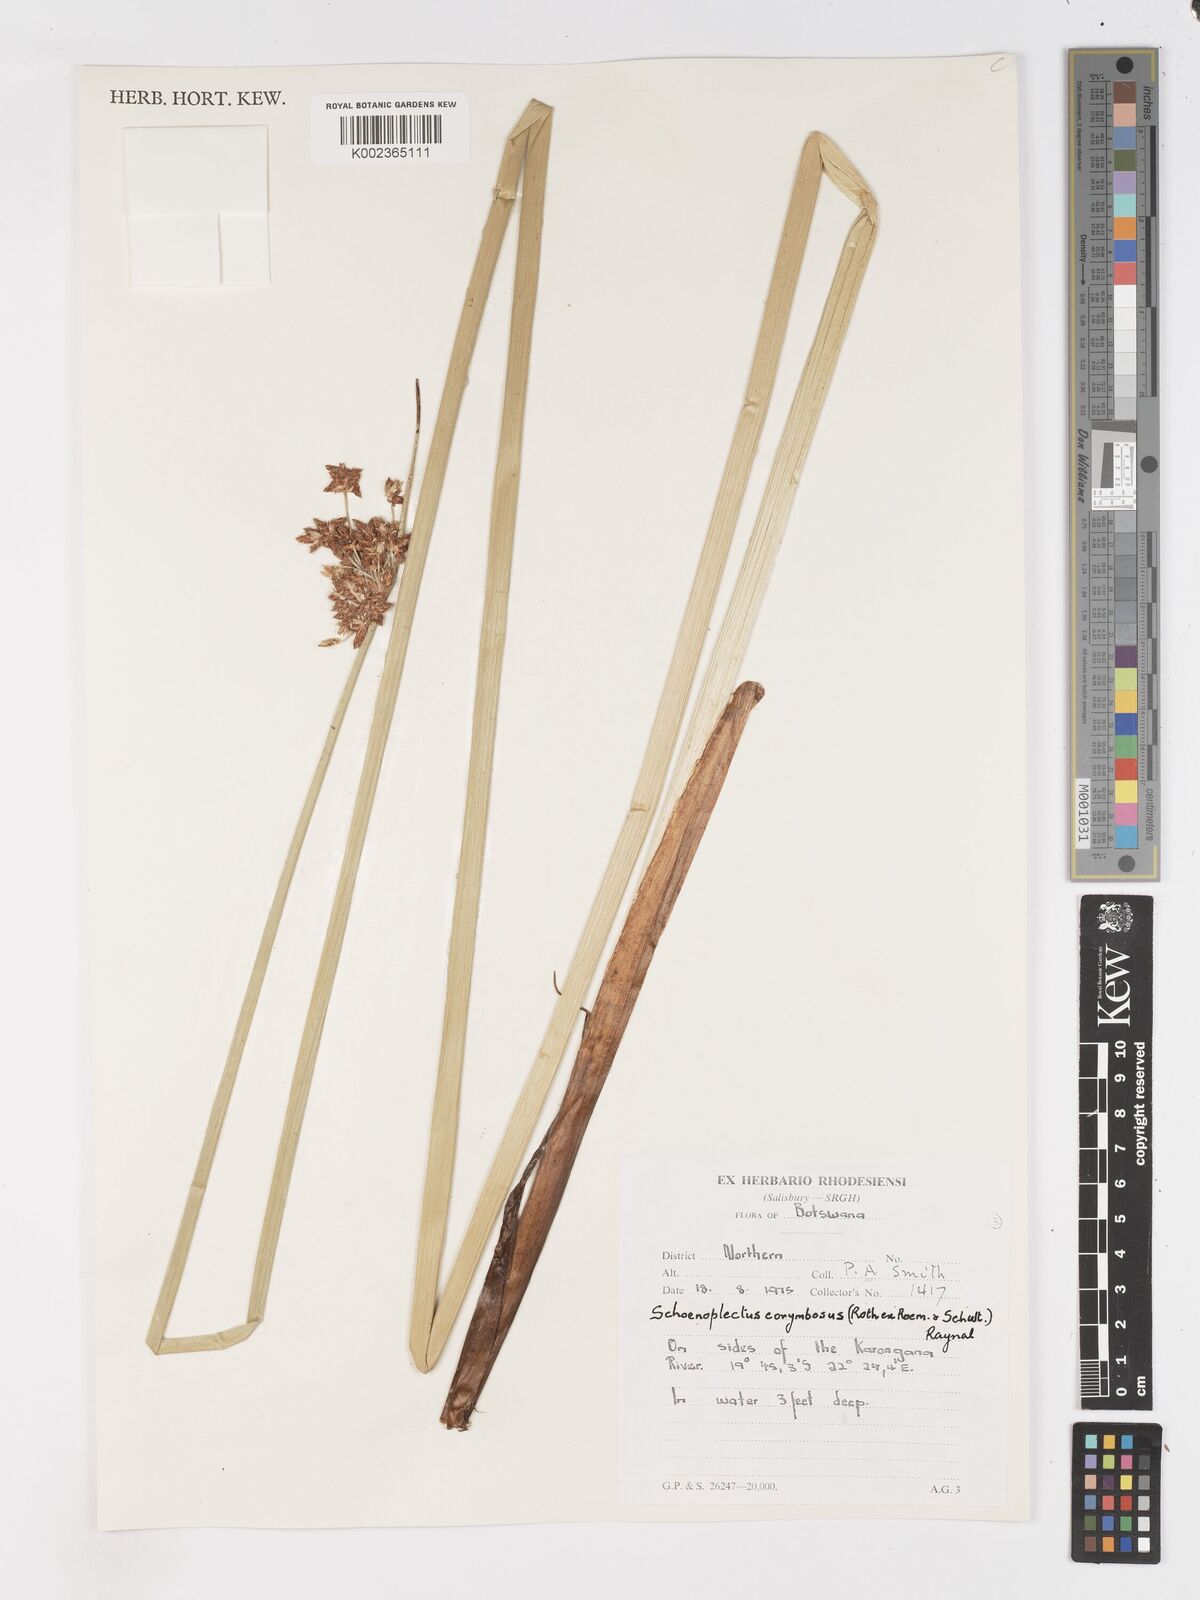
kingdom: Plantae
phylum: Tracheophyta
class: Liliopsida
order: Poales
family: Cyperaceae
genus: Schoenoplectiella
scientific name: Schoenoplectiella brachyceras
